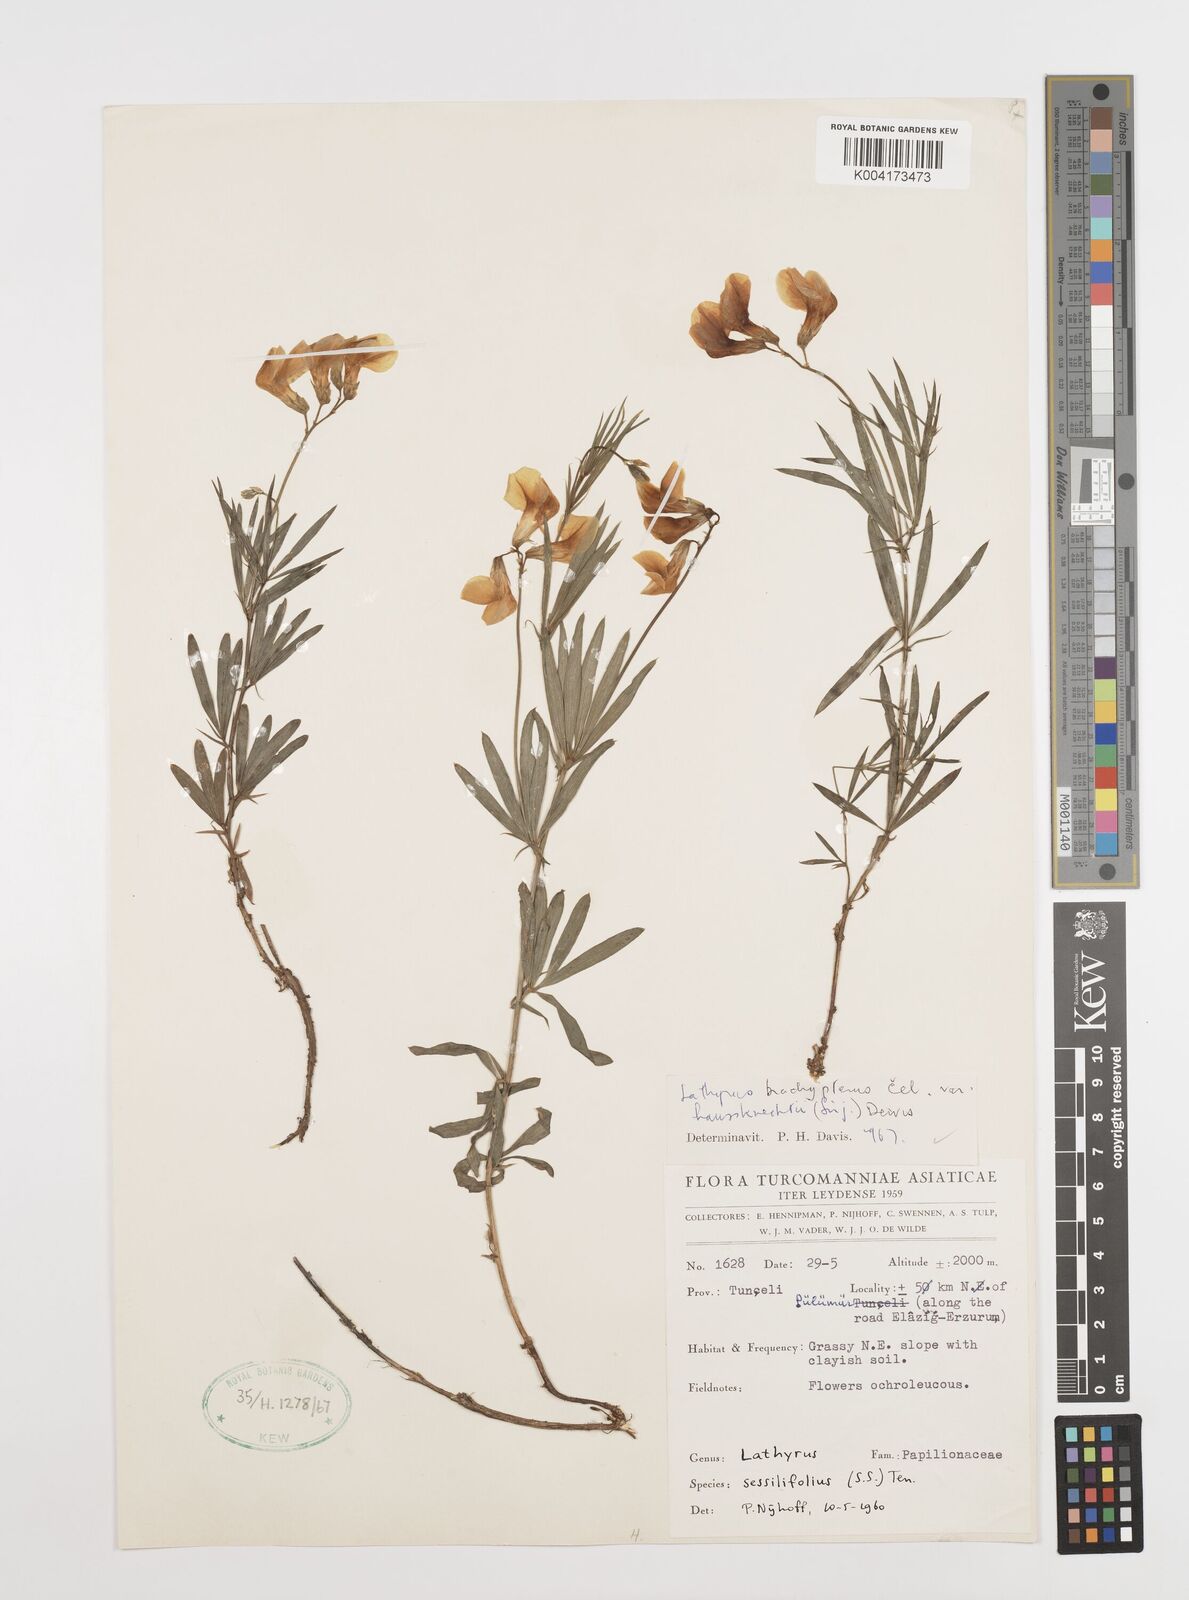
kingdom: Plantae
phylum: Tracheophyta
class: Magnoliopsida
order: Fabales
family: Fabaceae
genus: Lathyrus
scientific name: Lathyrus brachypterus
